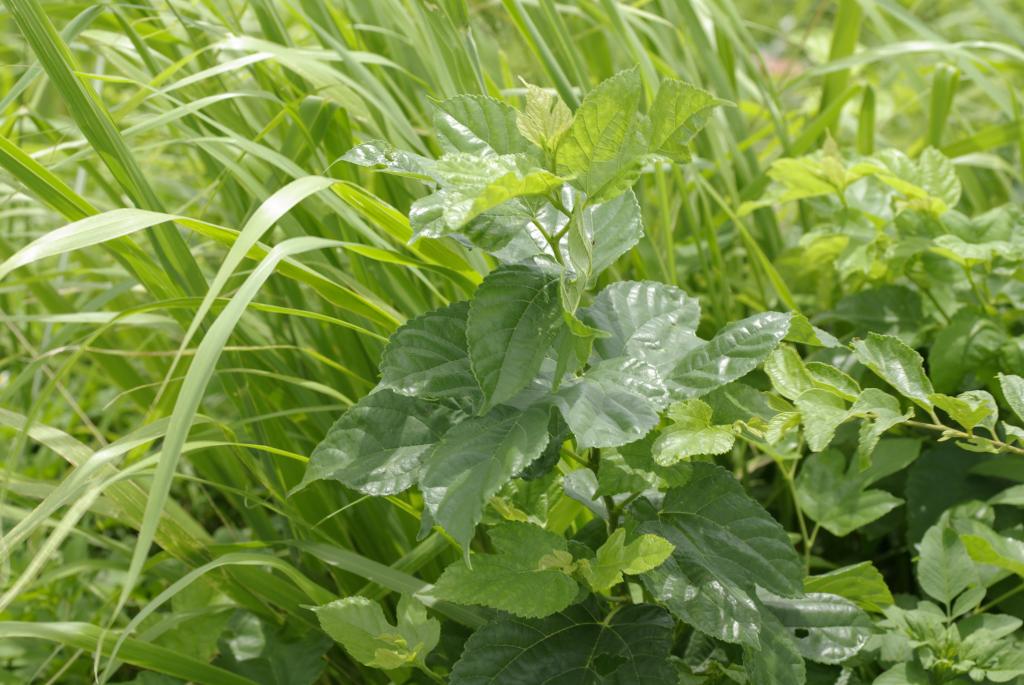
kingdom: Plantae
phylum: Tracheophyta
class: Magnoliopsida
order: Rosales
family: Moraceae
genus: Broussonetia
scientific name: Broussonetia papyrifera
